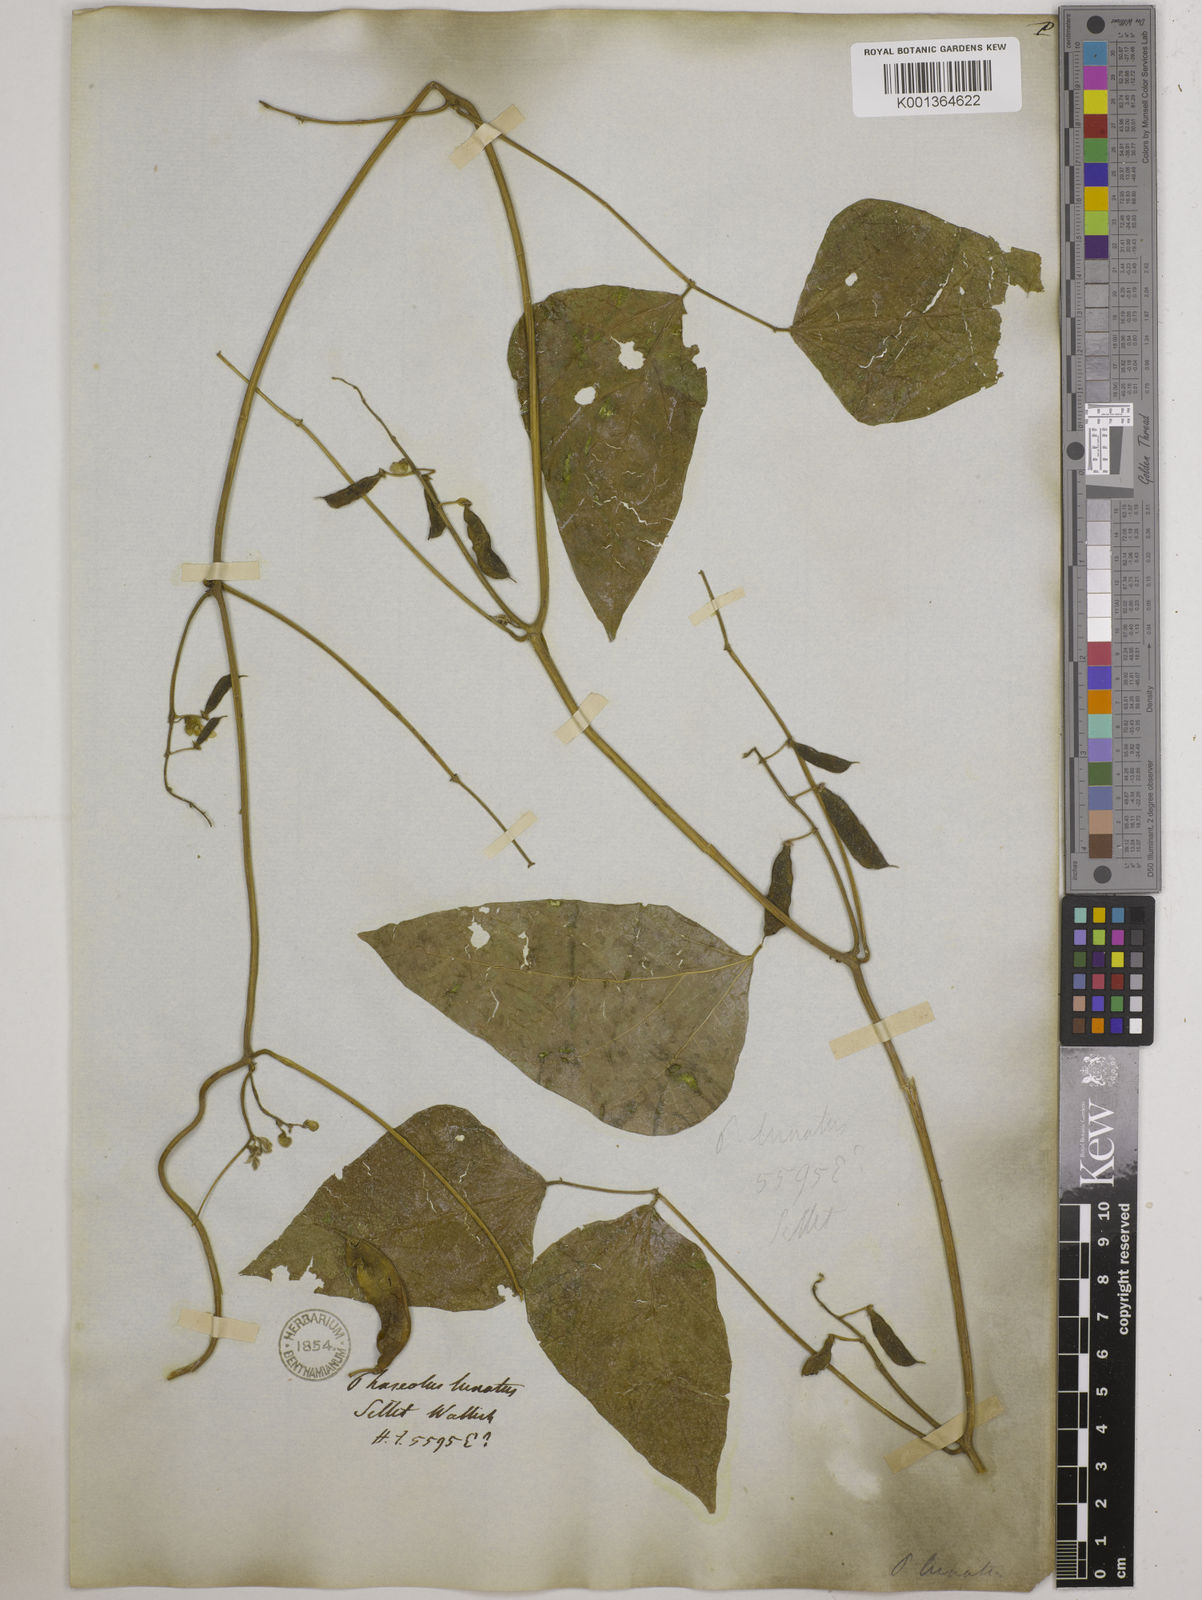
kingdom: Plantae
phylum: Tracheophyta
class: Magnoliopsida
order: Fabales
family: Fabaceae
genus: Phaseolus
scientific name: Phaseolus lunatus
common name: Sieva bean
